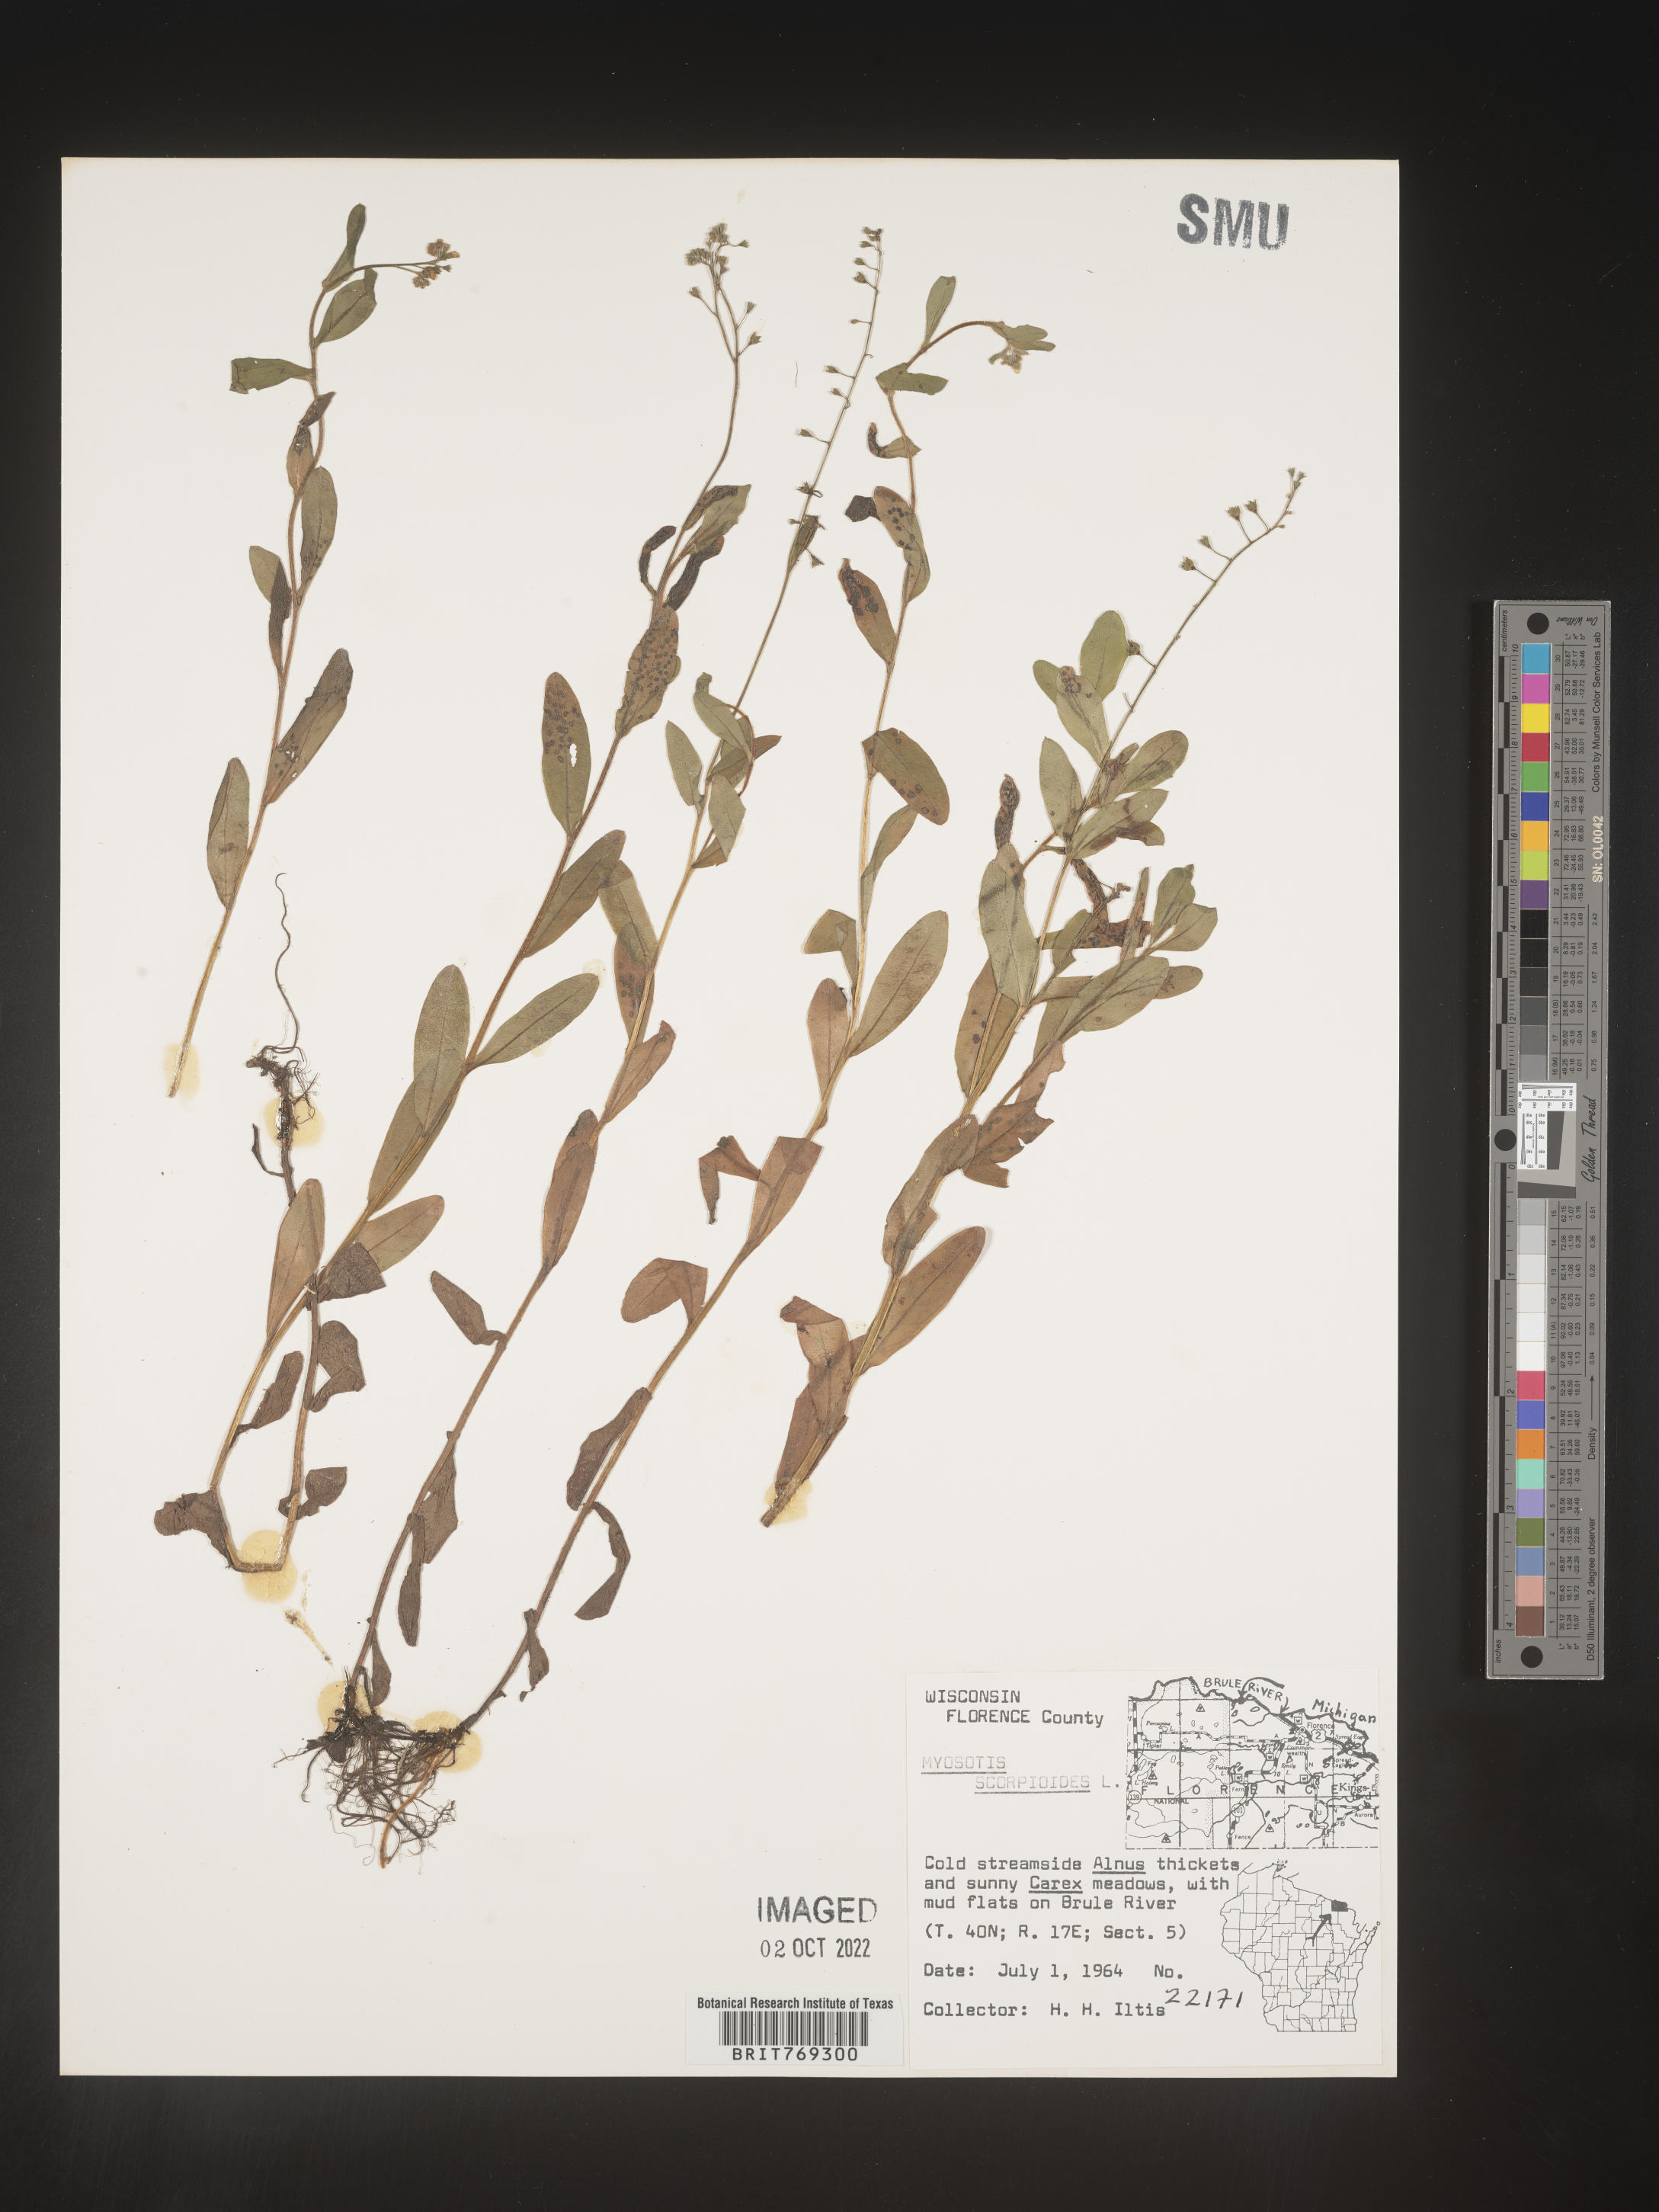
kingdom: Plantae
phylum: Tracheophyta
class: Magnoliopsida
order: Boraginales
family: Boraginaceae
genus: Myosotis
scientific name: Myosotis scorpioides
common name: Water forget-me-not
